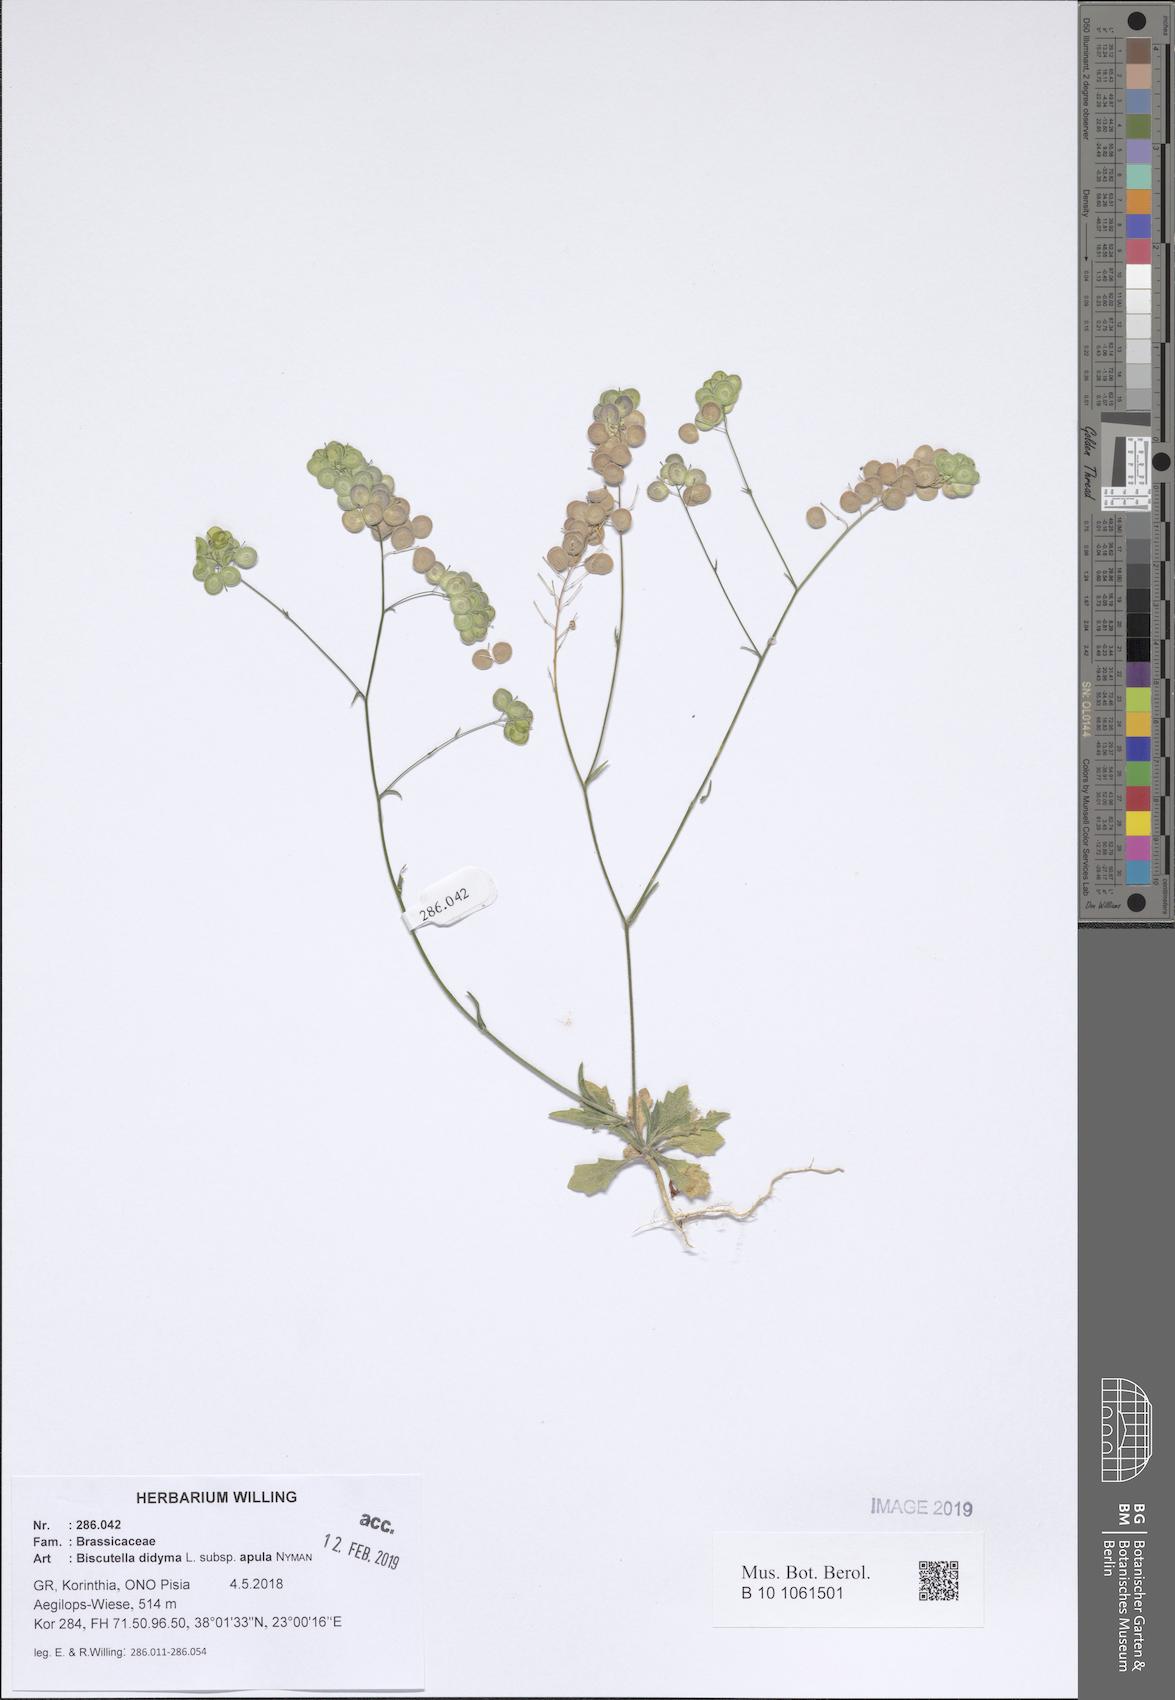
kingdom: Plantae
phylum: Tracheophyta
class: Magnoliopsida
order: Brassicales
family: Brassicaceae
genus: Biscutella
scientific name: Biscutella didyma
